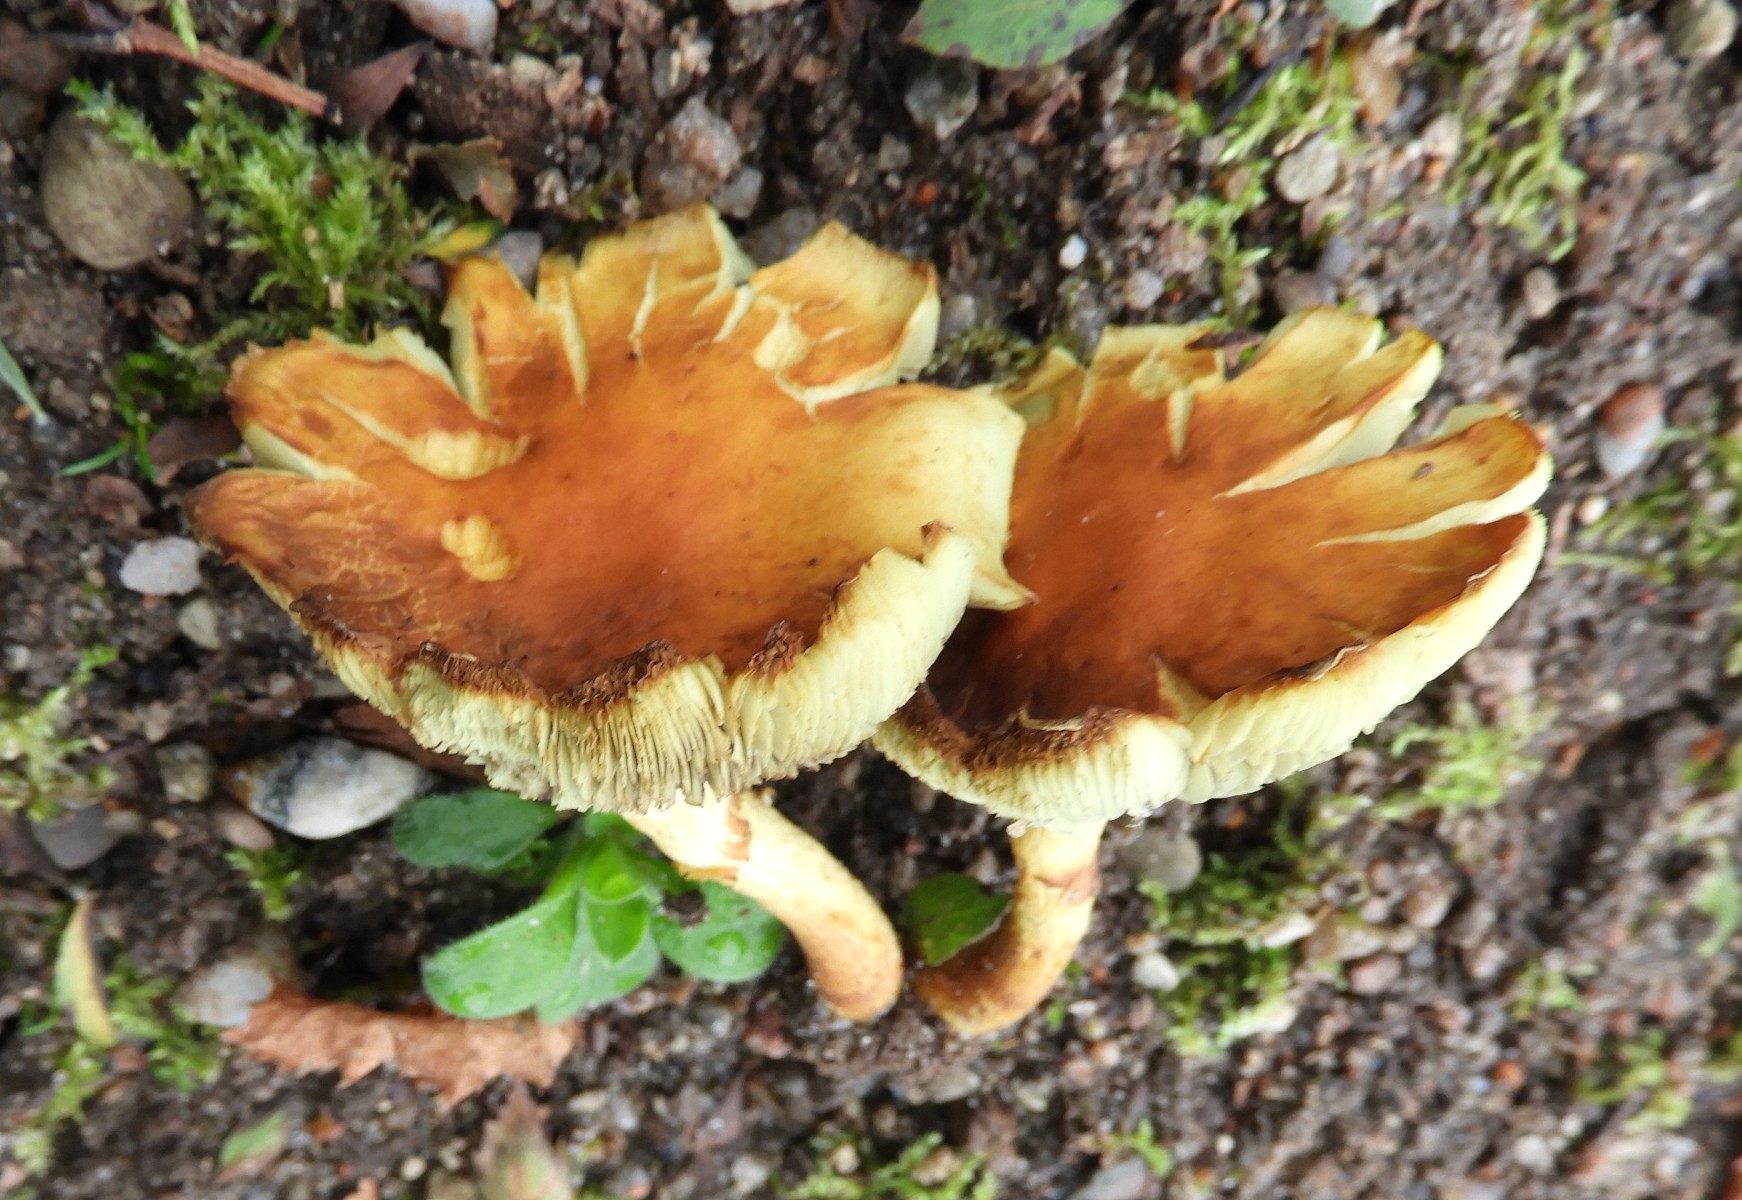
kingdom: Fungi
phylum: Basidiomycota
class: Agaricomycetes
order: Agaricales
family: Strophariaceae
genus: Hypholoma
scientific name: Hypholoma fasciculare
